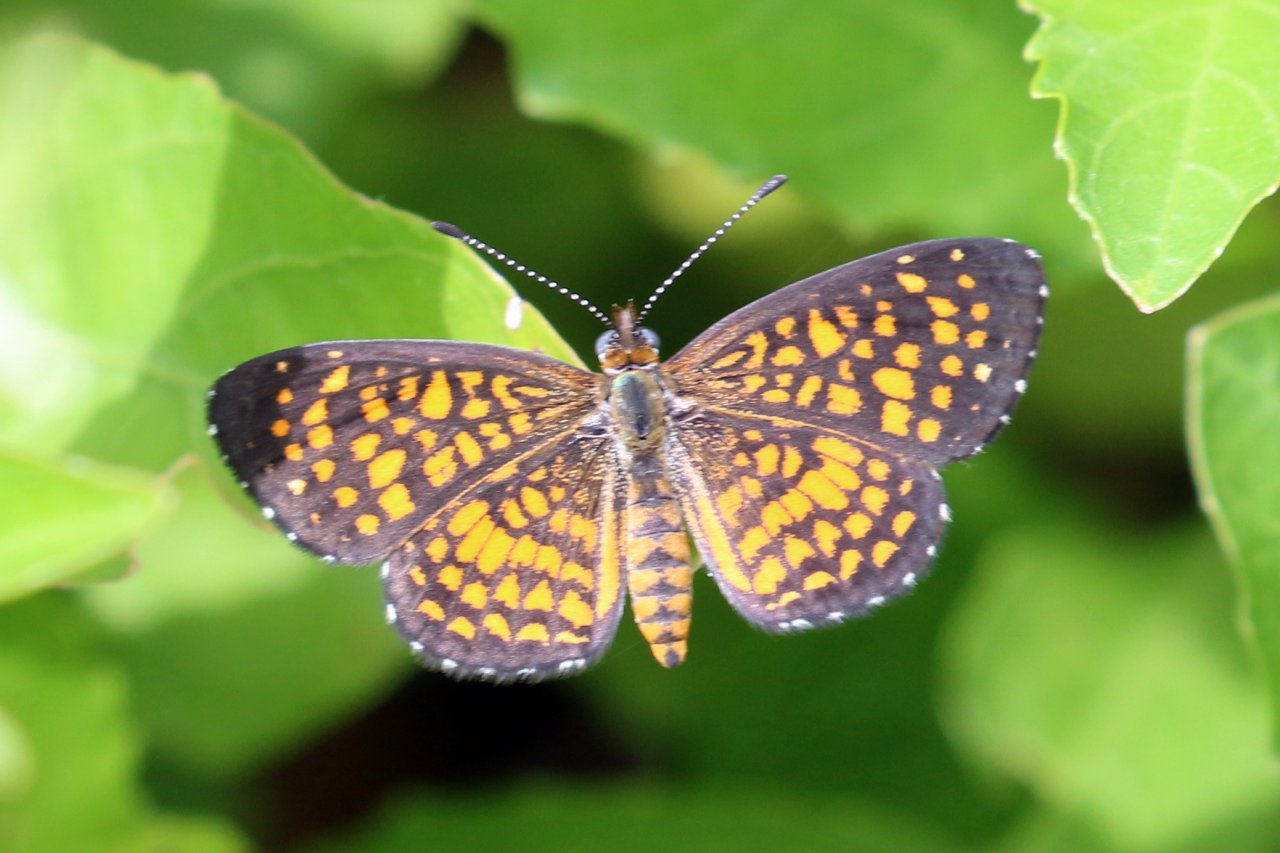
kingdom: Animalia
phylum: Arthropoda
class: Insecta
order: Lepidoptera
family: Nymphalidae
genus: Texola
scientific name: Texola elada
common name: Elada Checkerspot
